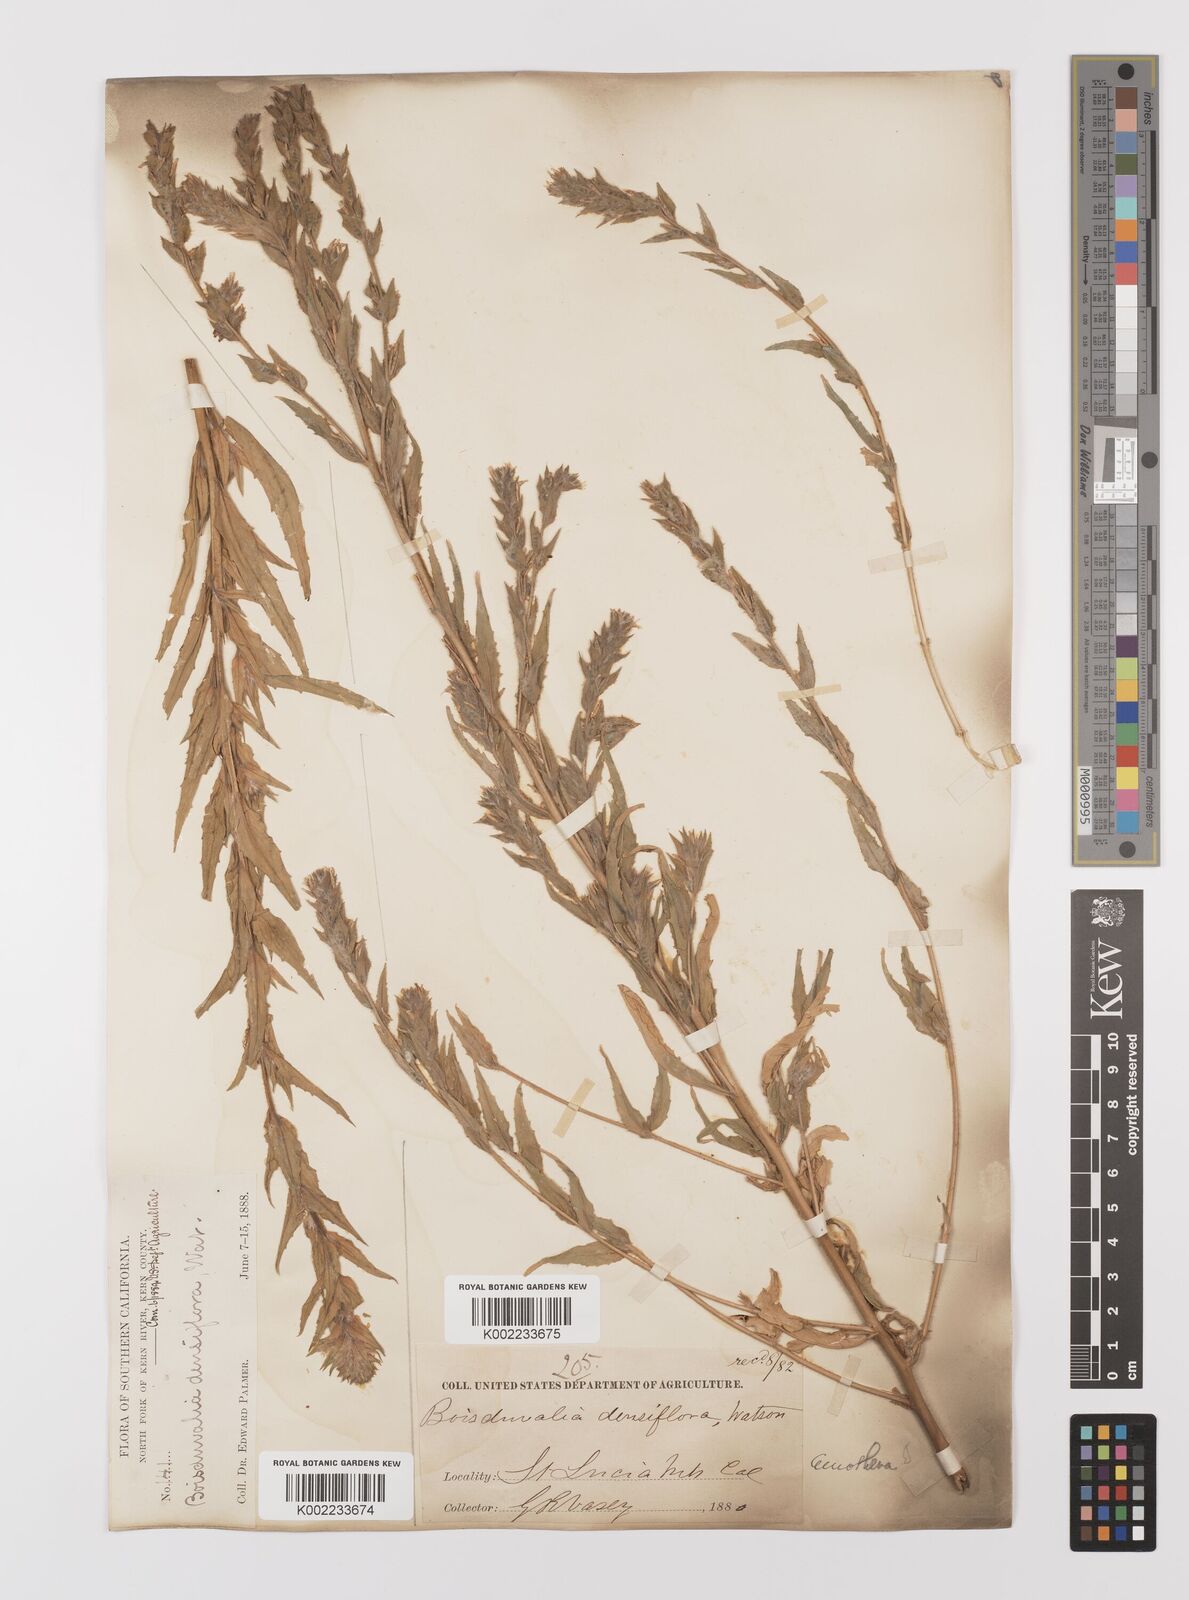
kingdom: Plantae
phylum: Tracheophyta
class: Magnoliopsida
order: Myrtales
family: Onagraceae
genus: Epilobium
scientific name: Epilobium densiflorum
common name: Dense spike-primrose
